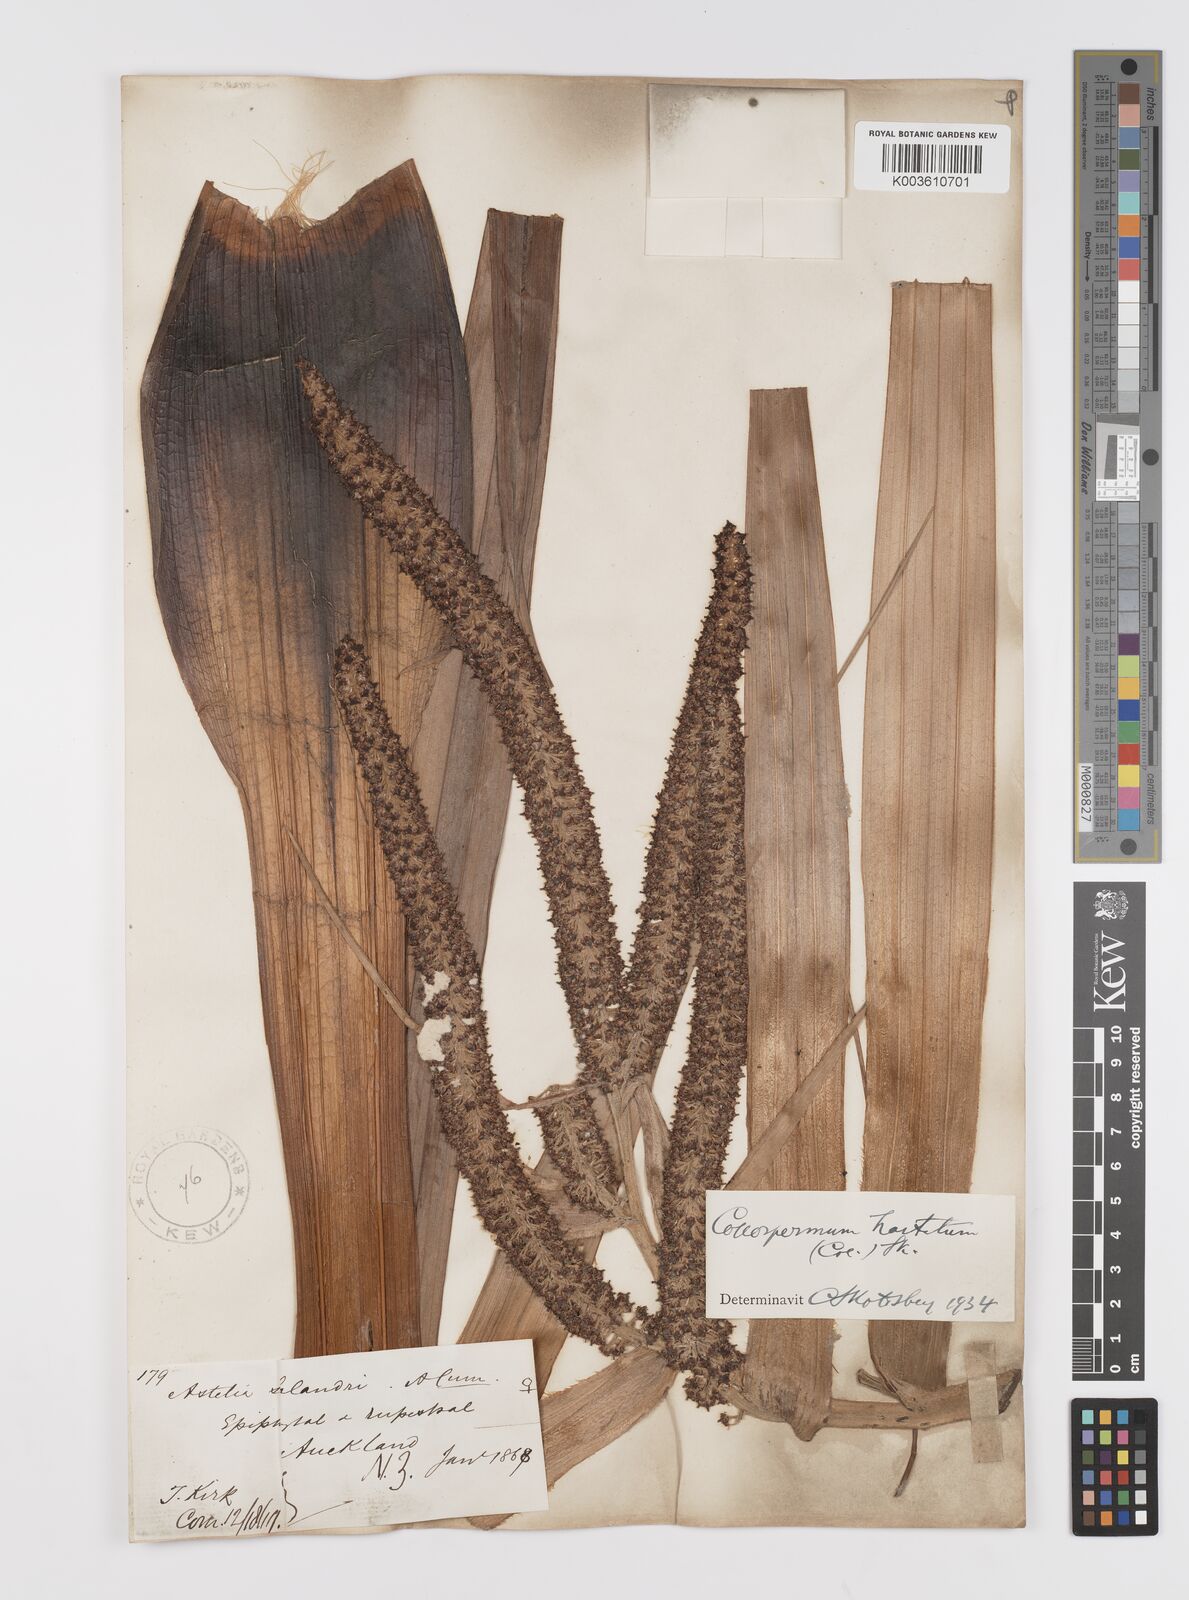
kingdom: Plantae
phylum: Tracheophyta
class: Liliopsida
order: Asparagales
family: Asteliaceae
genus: Astelia
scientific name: Astelia hastata
